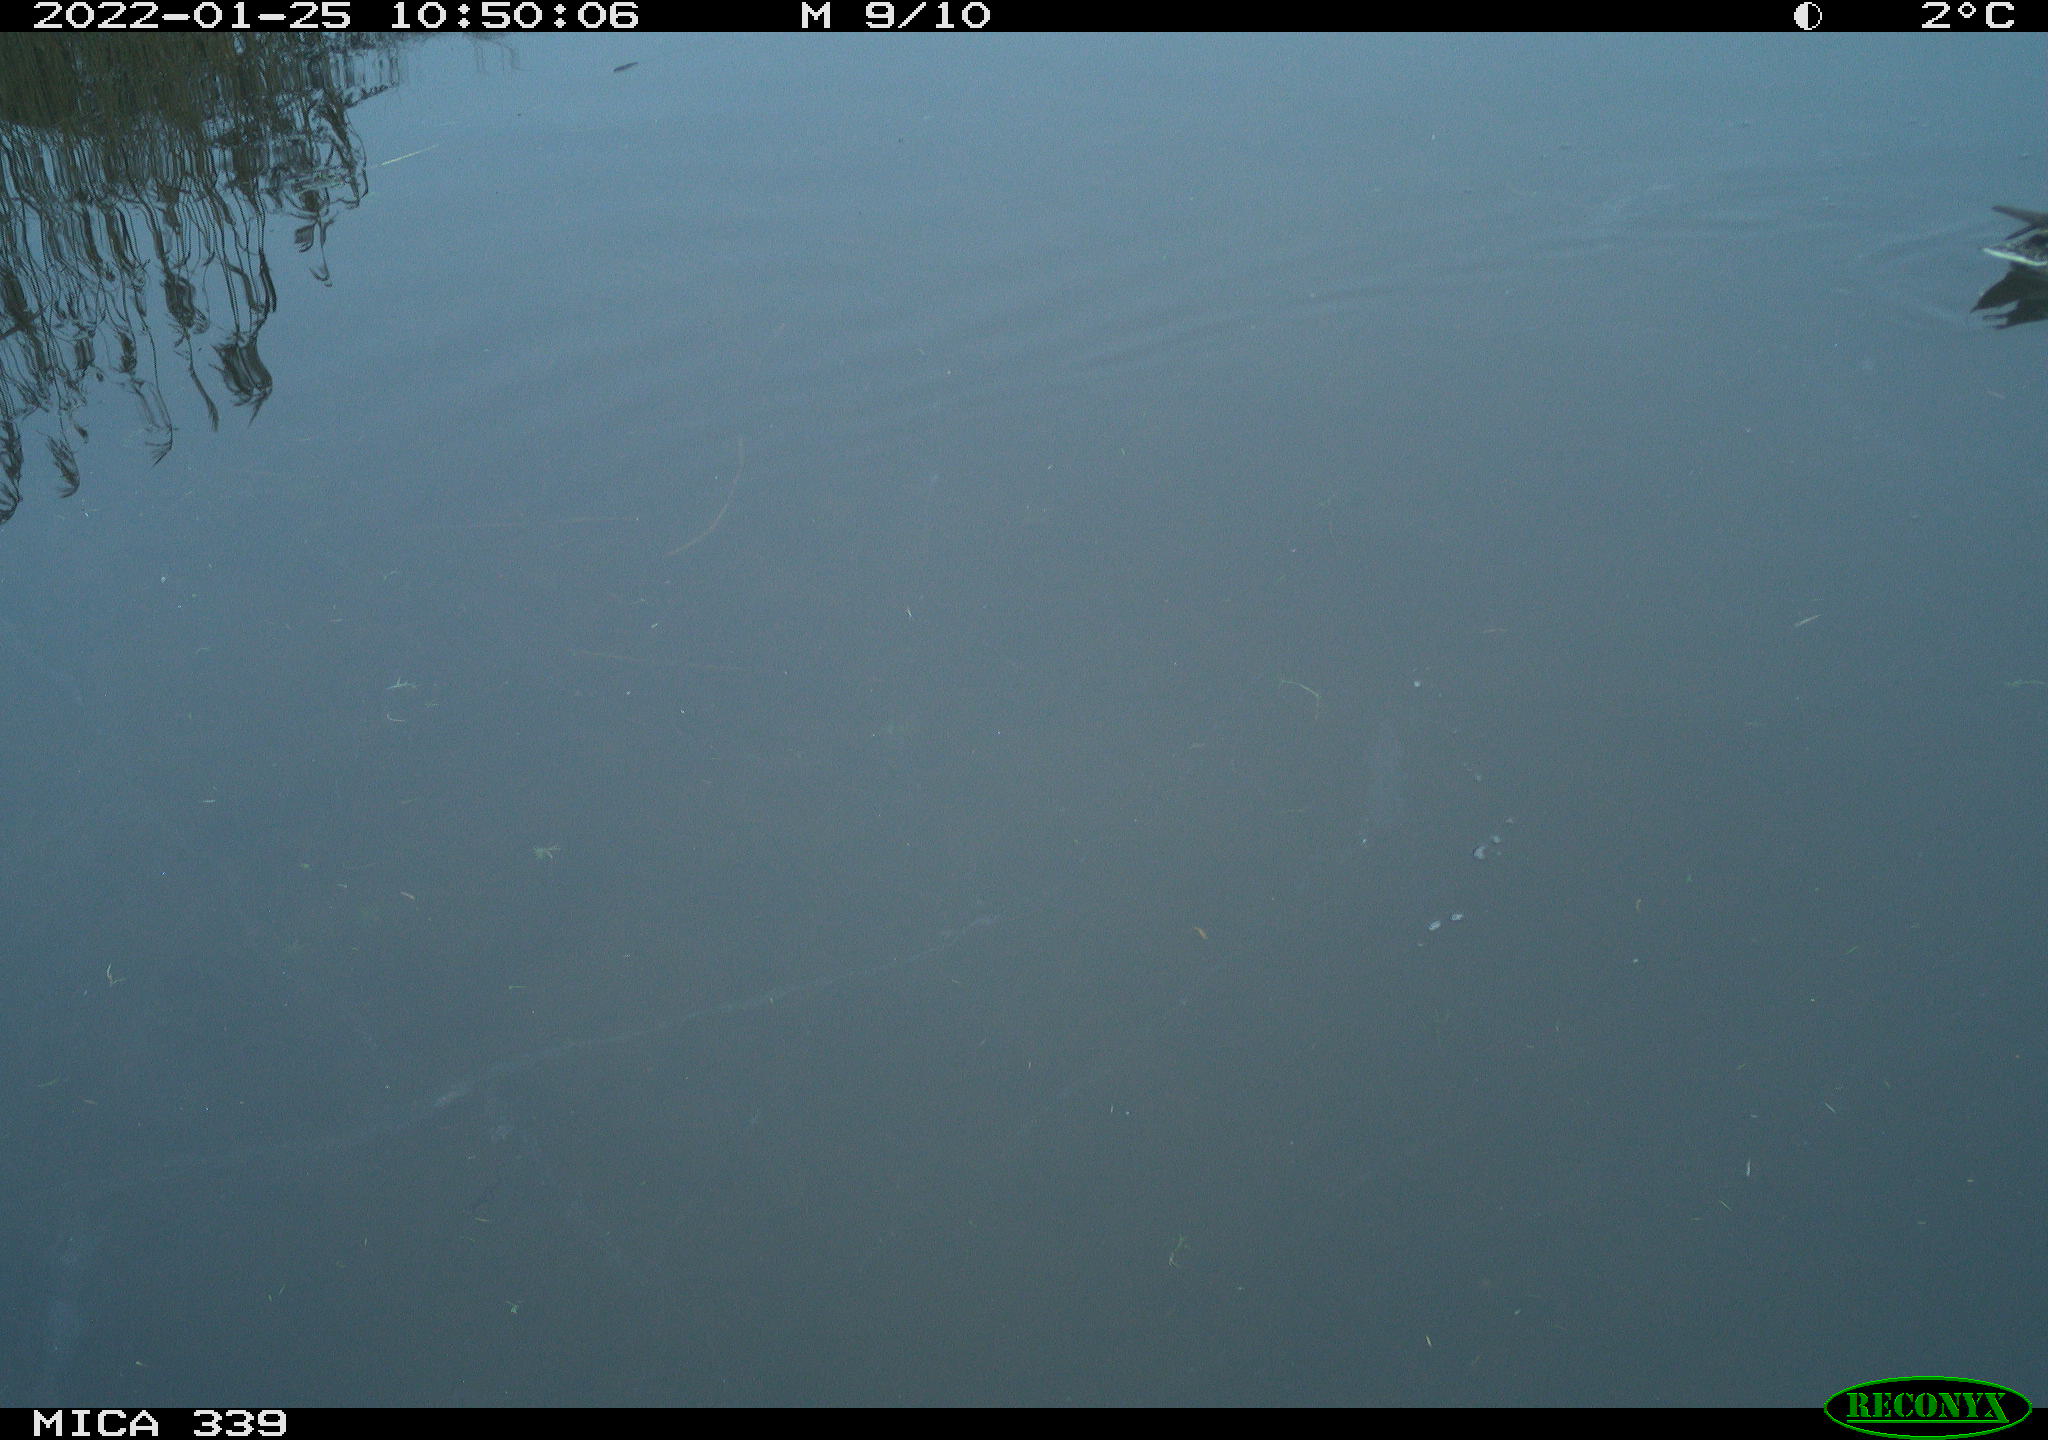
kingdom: Animalia
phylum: Chordata
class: Aves
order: Anseriformes
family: Anatidae
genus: Anas
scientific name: Anas platyrhynchos
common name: Mallard
